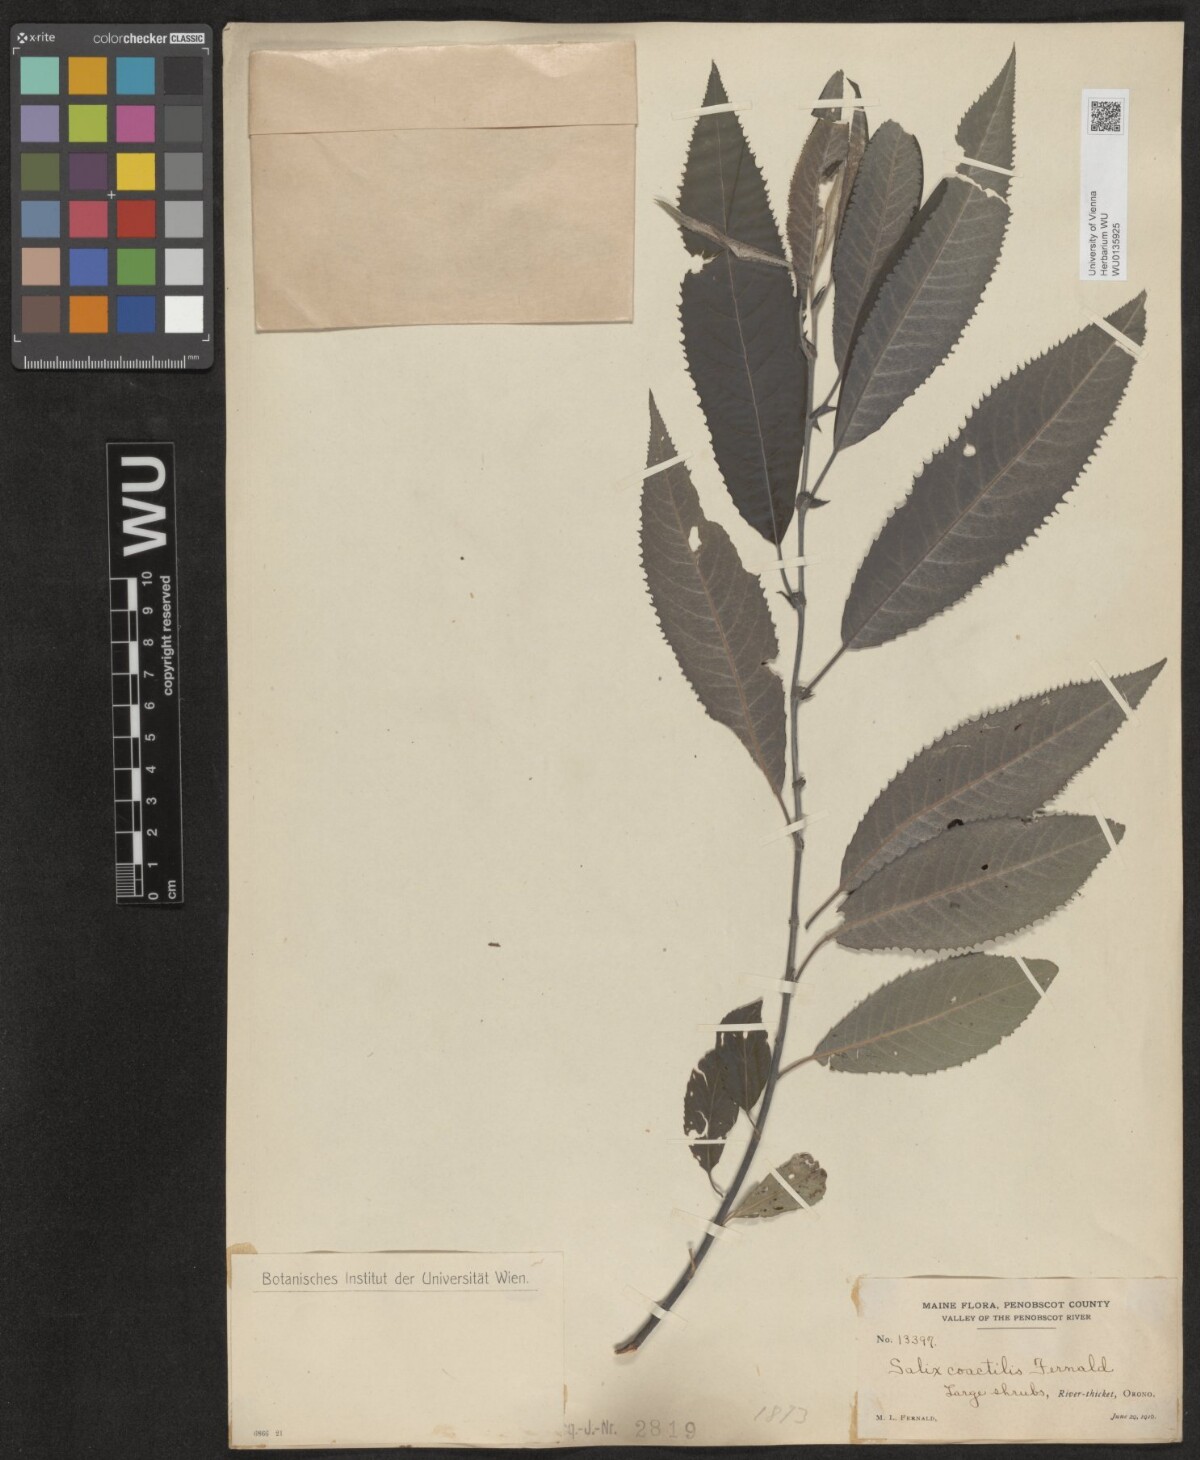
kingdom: Plantae
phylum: Tracheophyta
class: Magnoliopsida
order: Malpighiales
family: Salicaceae
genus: Salix
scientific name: Salix sericea
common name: Silky willow
